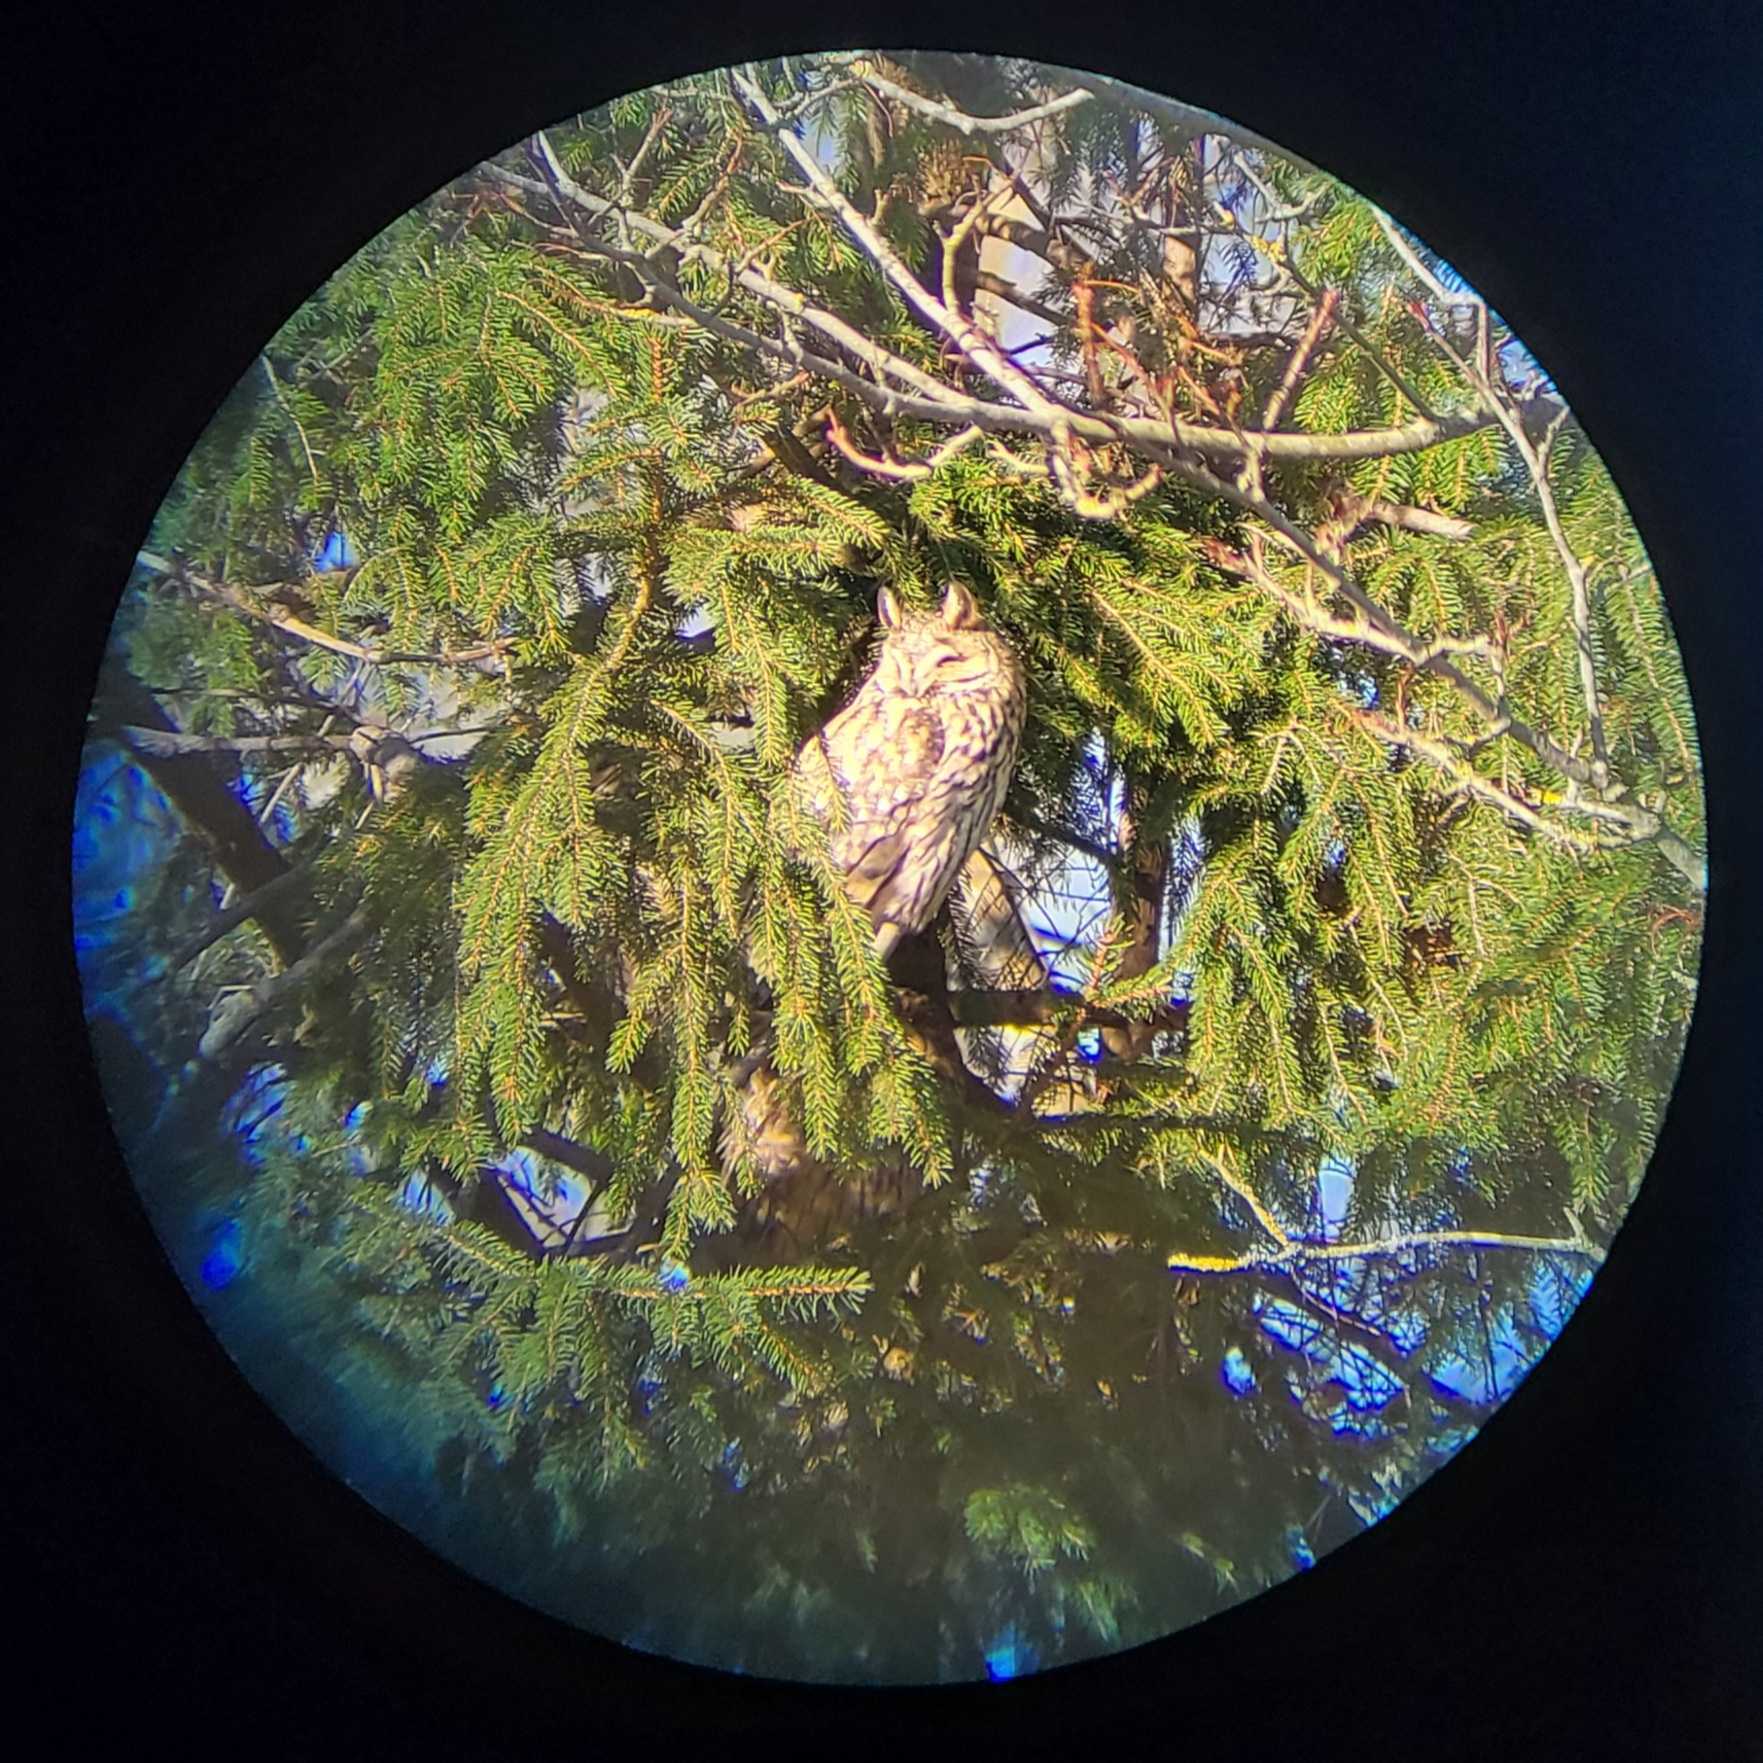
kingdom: Animalia
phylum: Chordata
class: Aves
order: Strigiformes
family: Strigidae
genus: Asio
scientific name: Asio otus
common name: Skovhornugle
